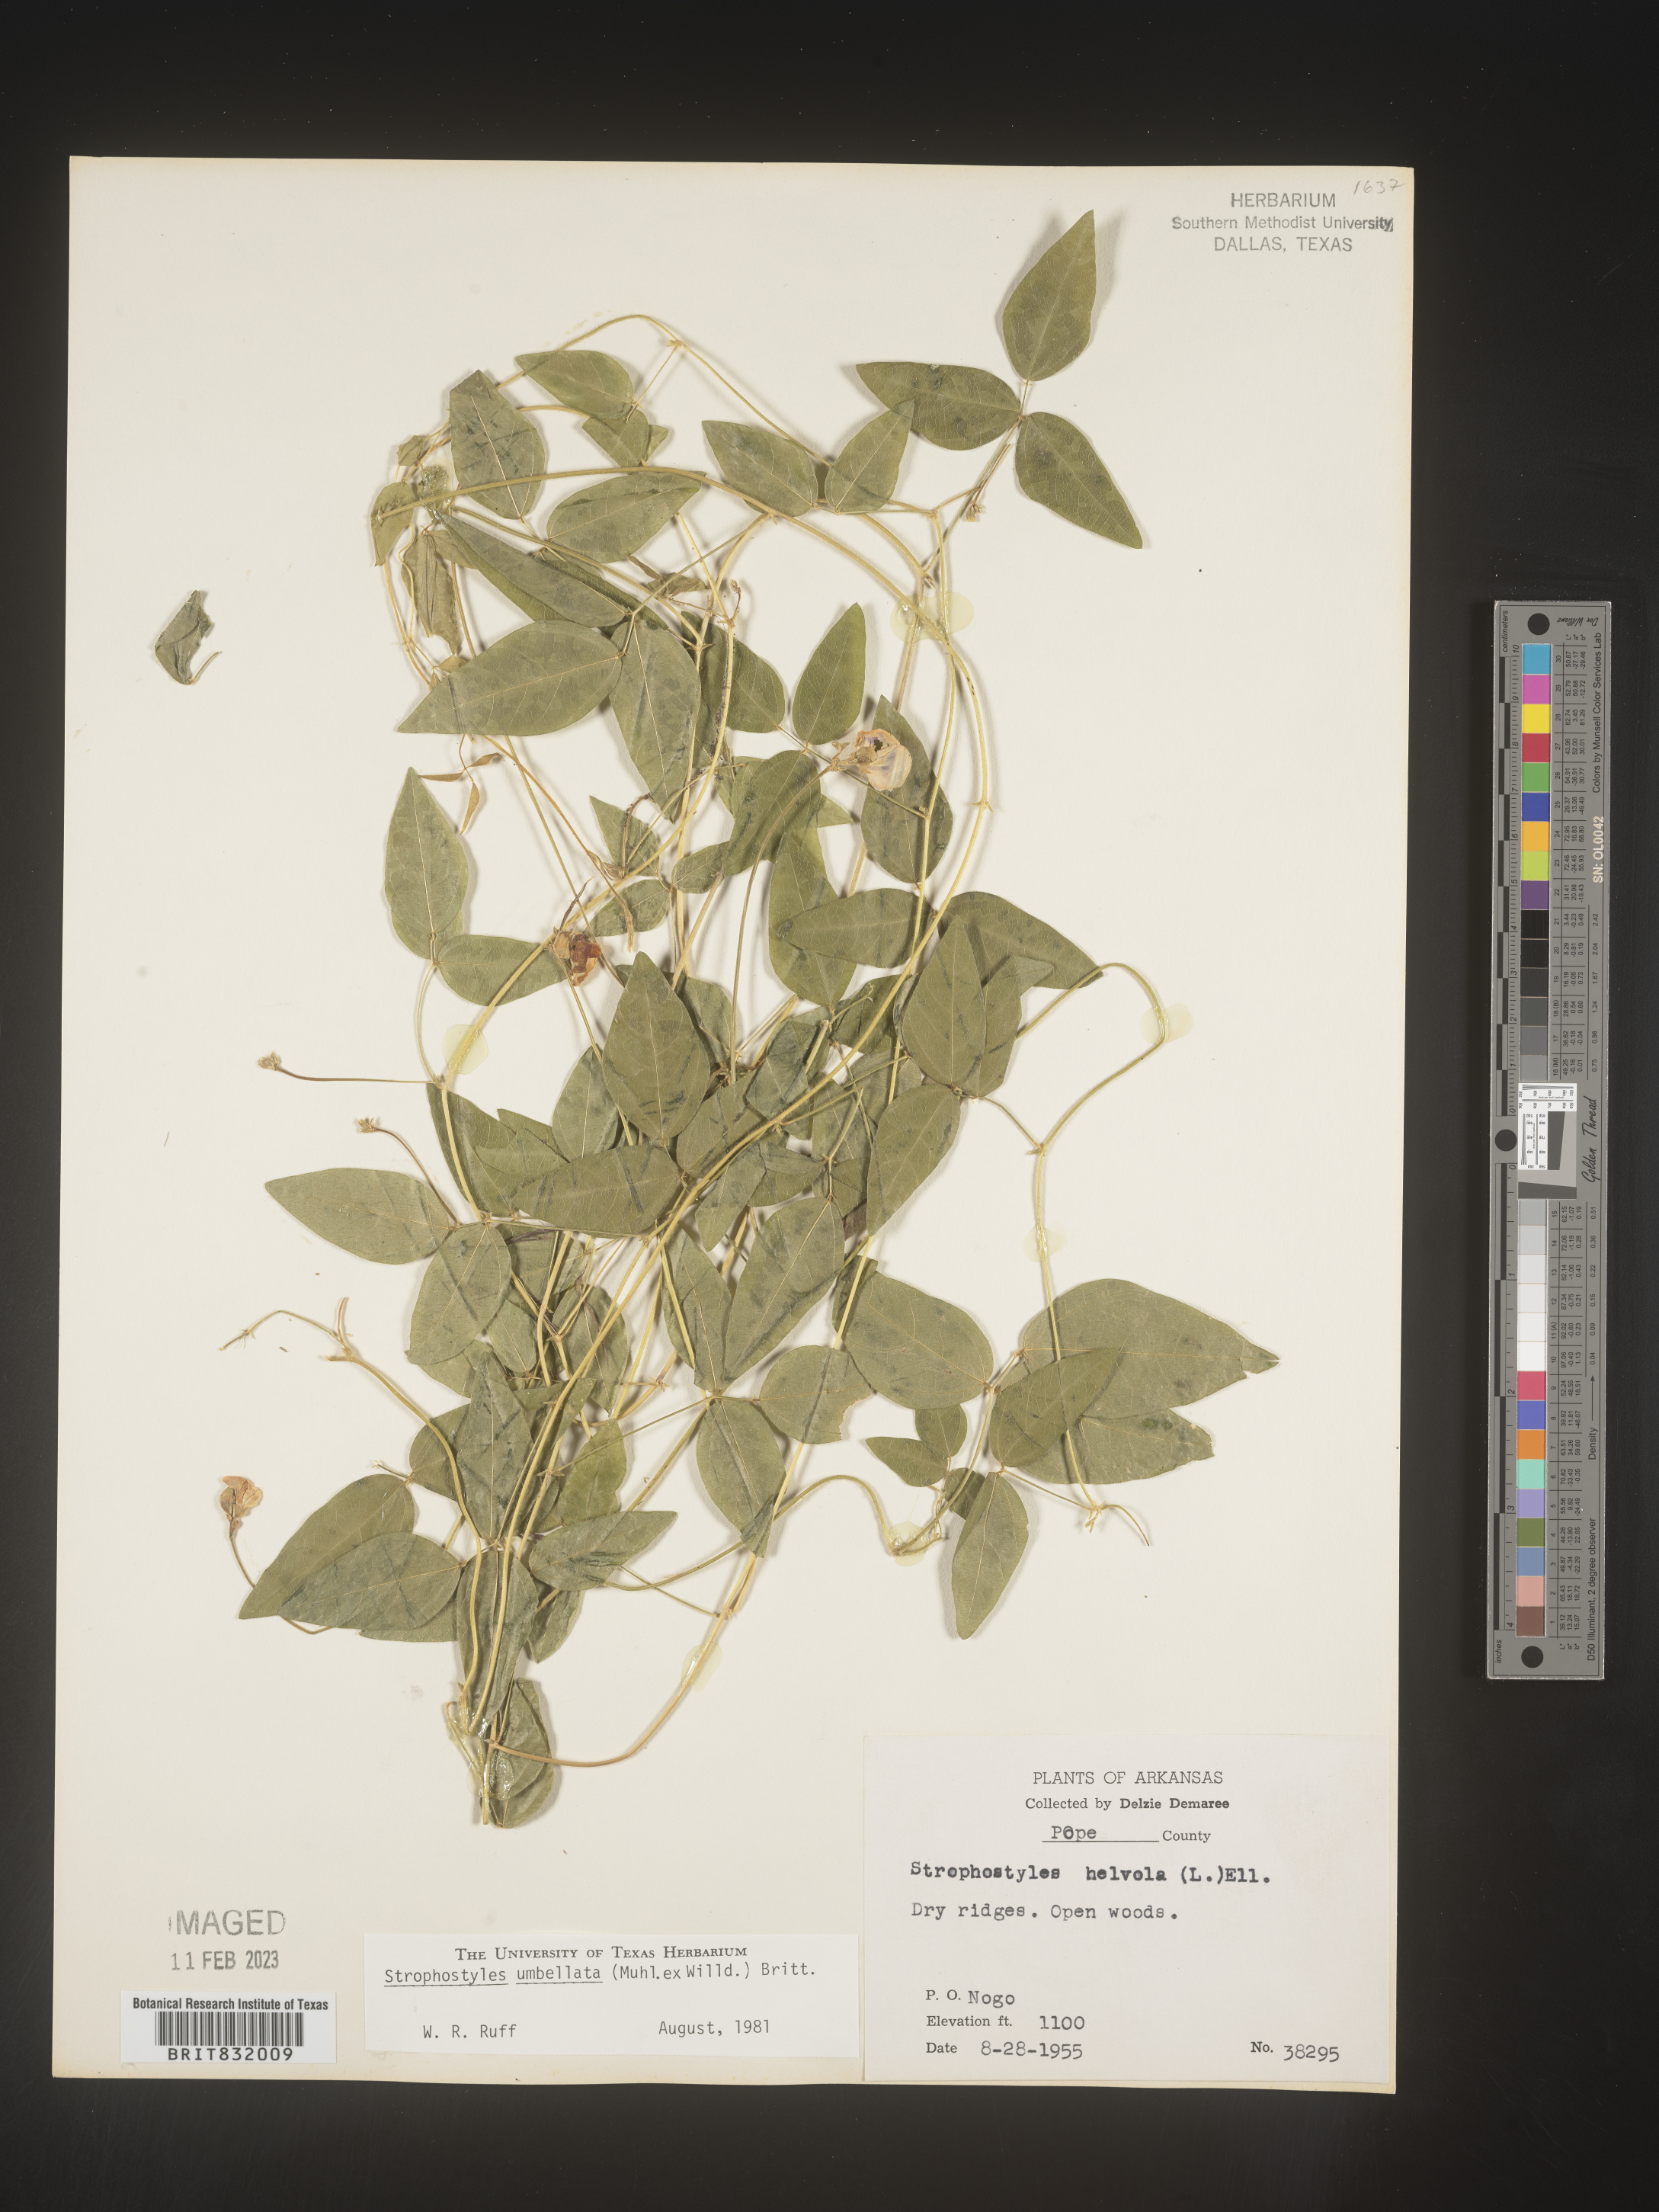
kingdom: Plantae
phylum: Tracheophyta
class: Magnoliopsida
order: Fabales
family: Fabaceae
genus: Strophostyles
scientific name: Strophostyles umbellata
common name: Perennial wild bean
